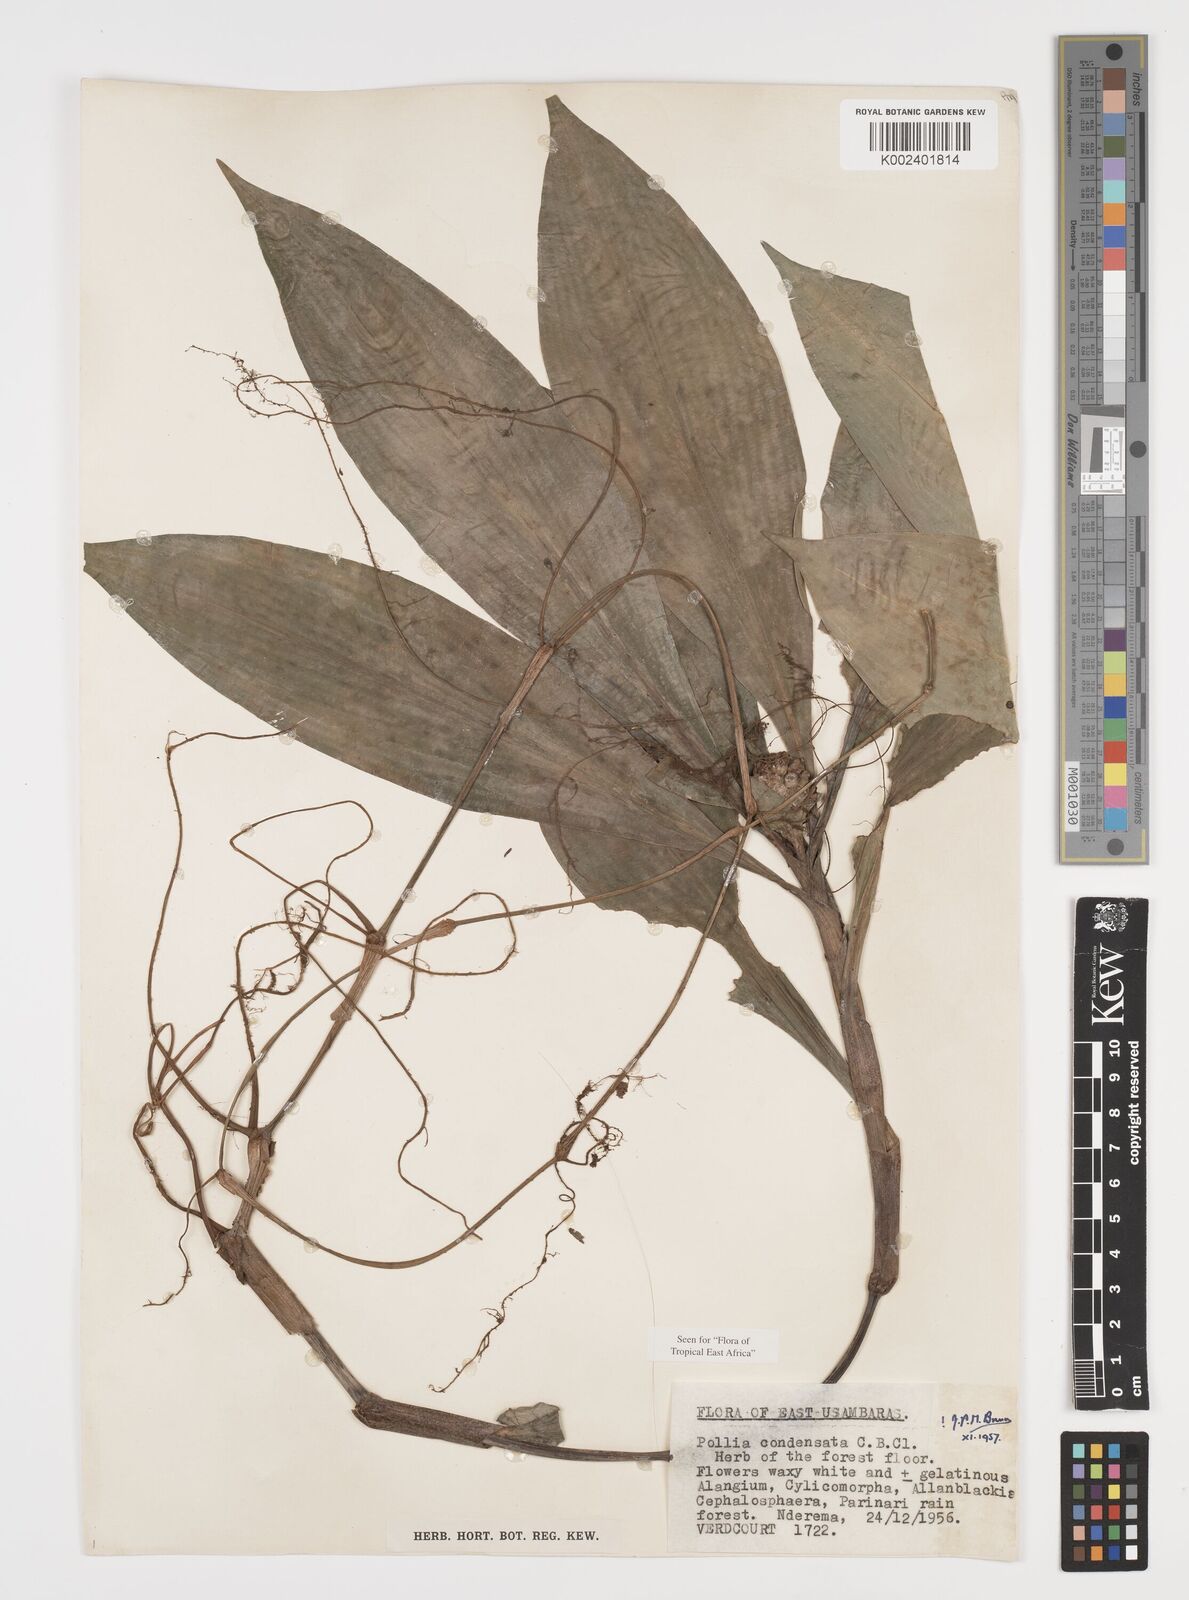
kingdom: Plantae
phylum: Tracheophyta
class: Liliopsida
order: Commelinales
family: Commelinaceae
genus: Pollia
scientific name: Pollia condensata
